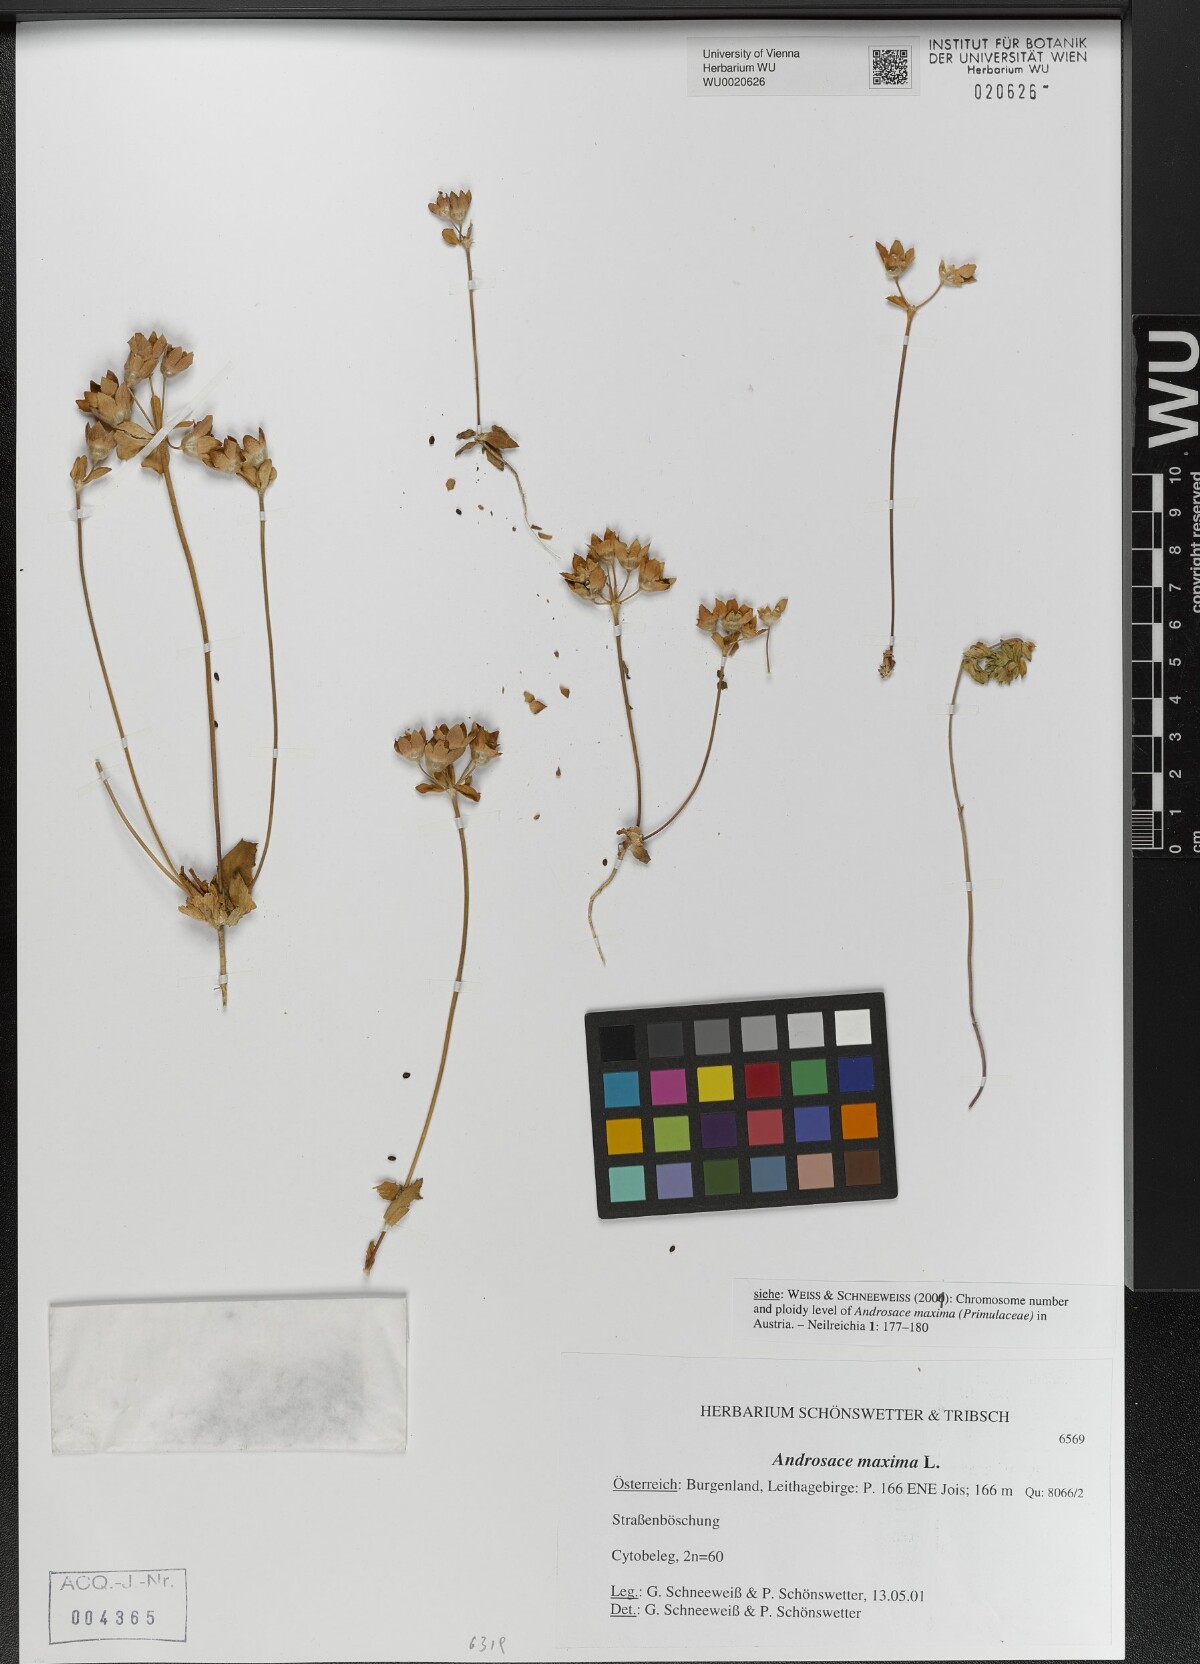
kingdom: Plantae
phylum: Tracheophyta
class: Magnoliopsida
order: Ericales
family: Primulaceae
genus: Androsace
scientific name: Androsace maxima
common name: Annual androsace
